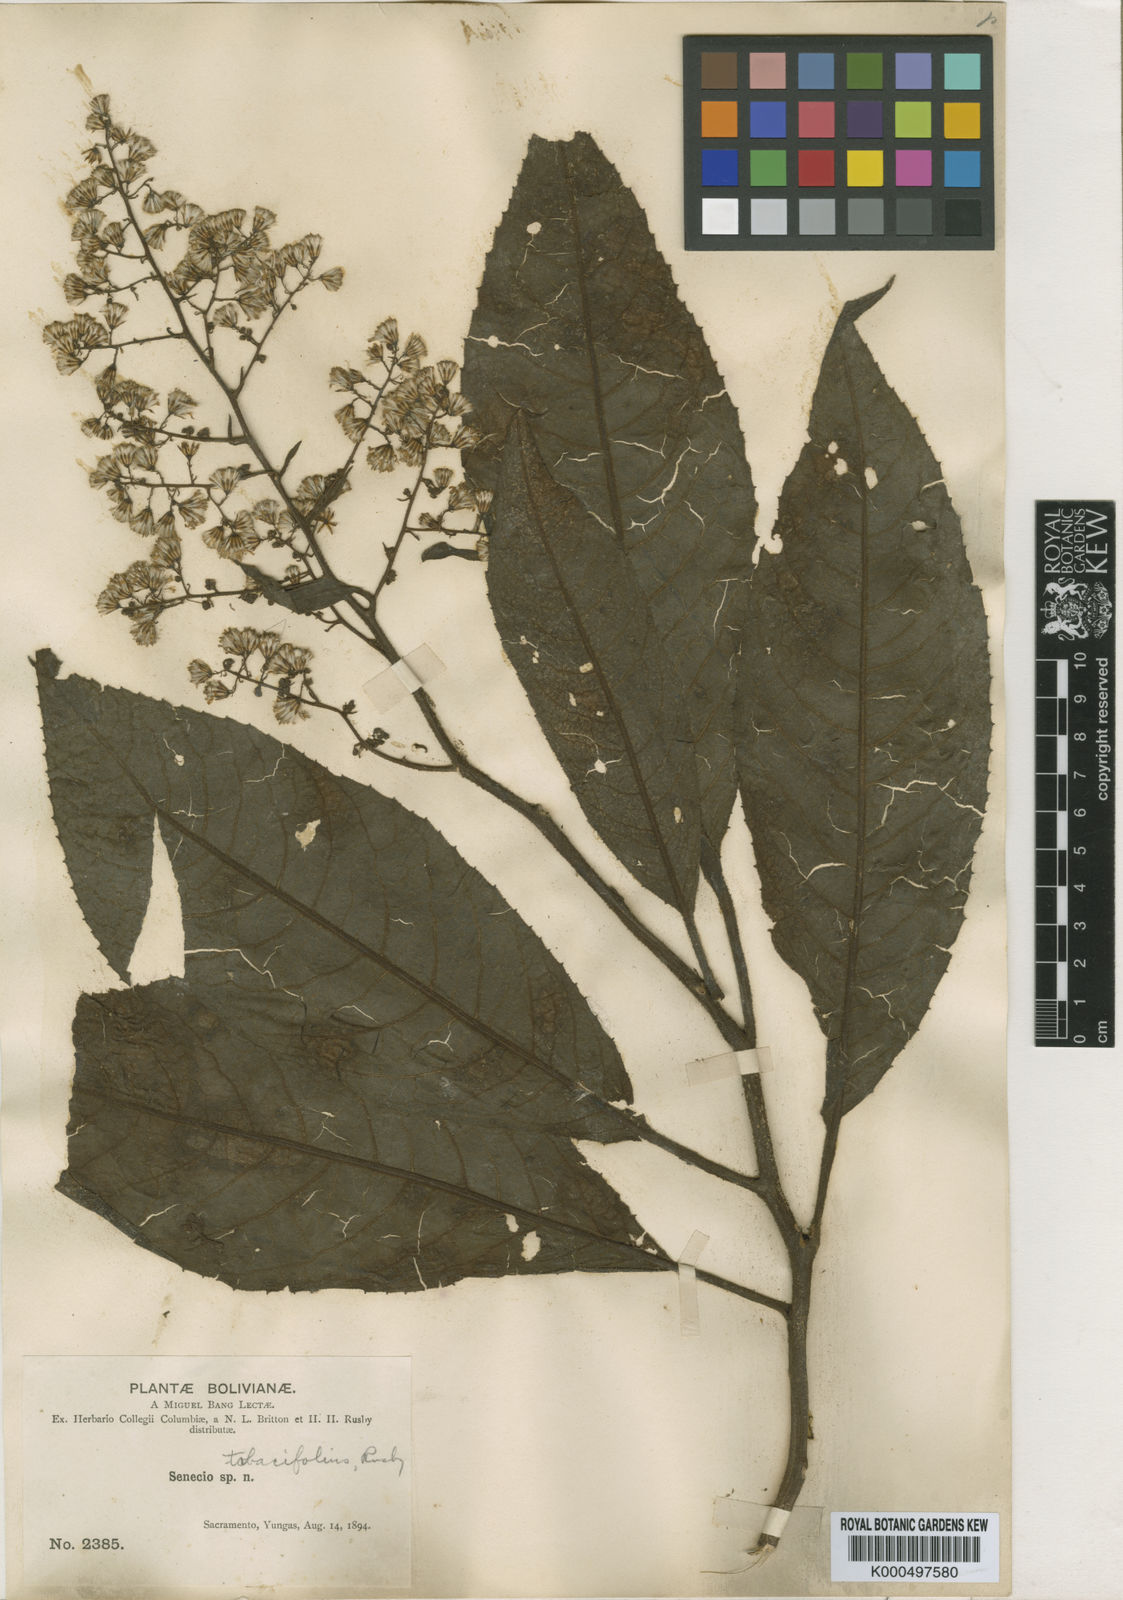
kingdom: Plantae
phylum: Tracheophyta
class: Magnoliopsida
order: Asterales
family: Asteraceae
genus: Dendrophorbium
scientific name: Dendrophorbium tabacifolium
